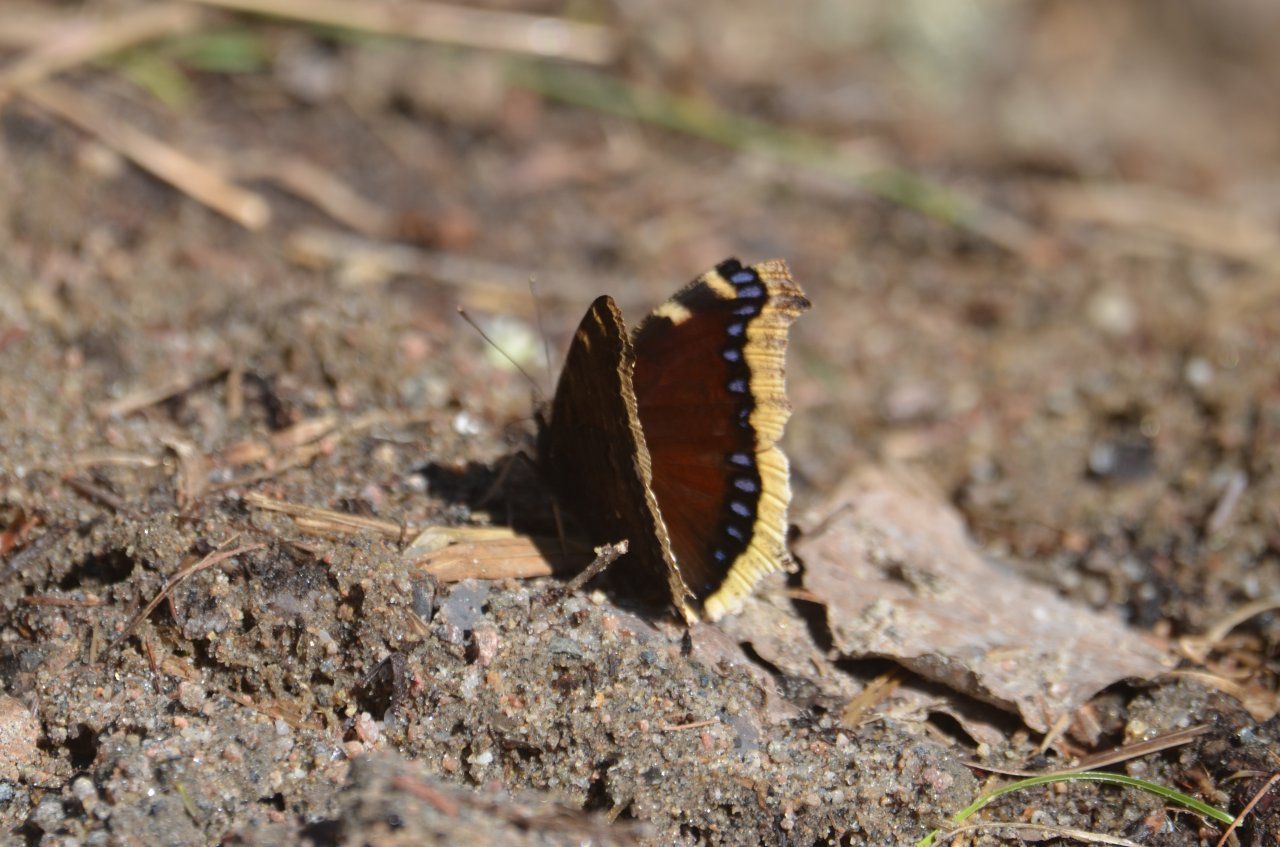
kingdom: Animalia
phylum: Arthropoda
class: Insecta
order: Lepidoptera
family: Nymphalidae
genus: Nymphalis
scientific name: Nymphalis antiopa
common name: Mourning Cloak
